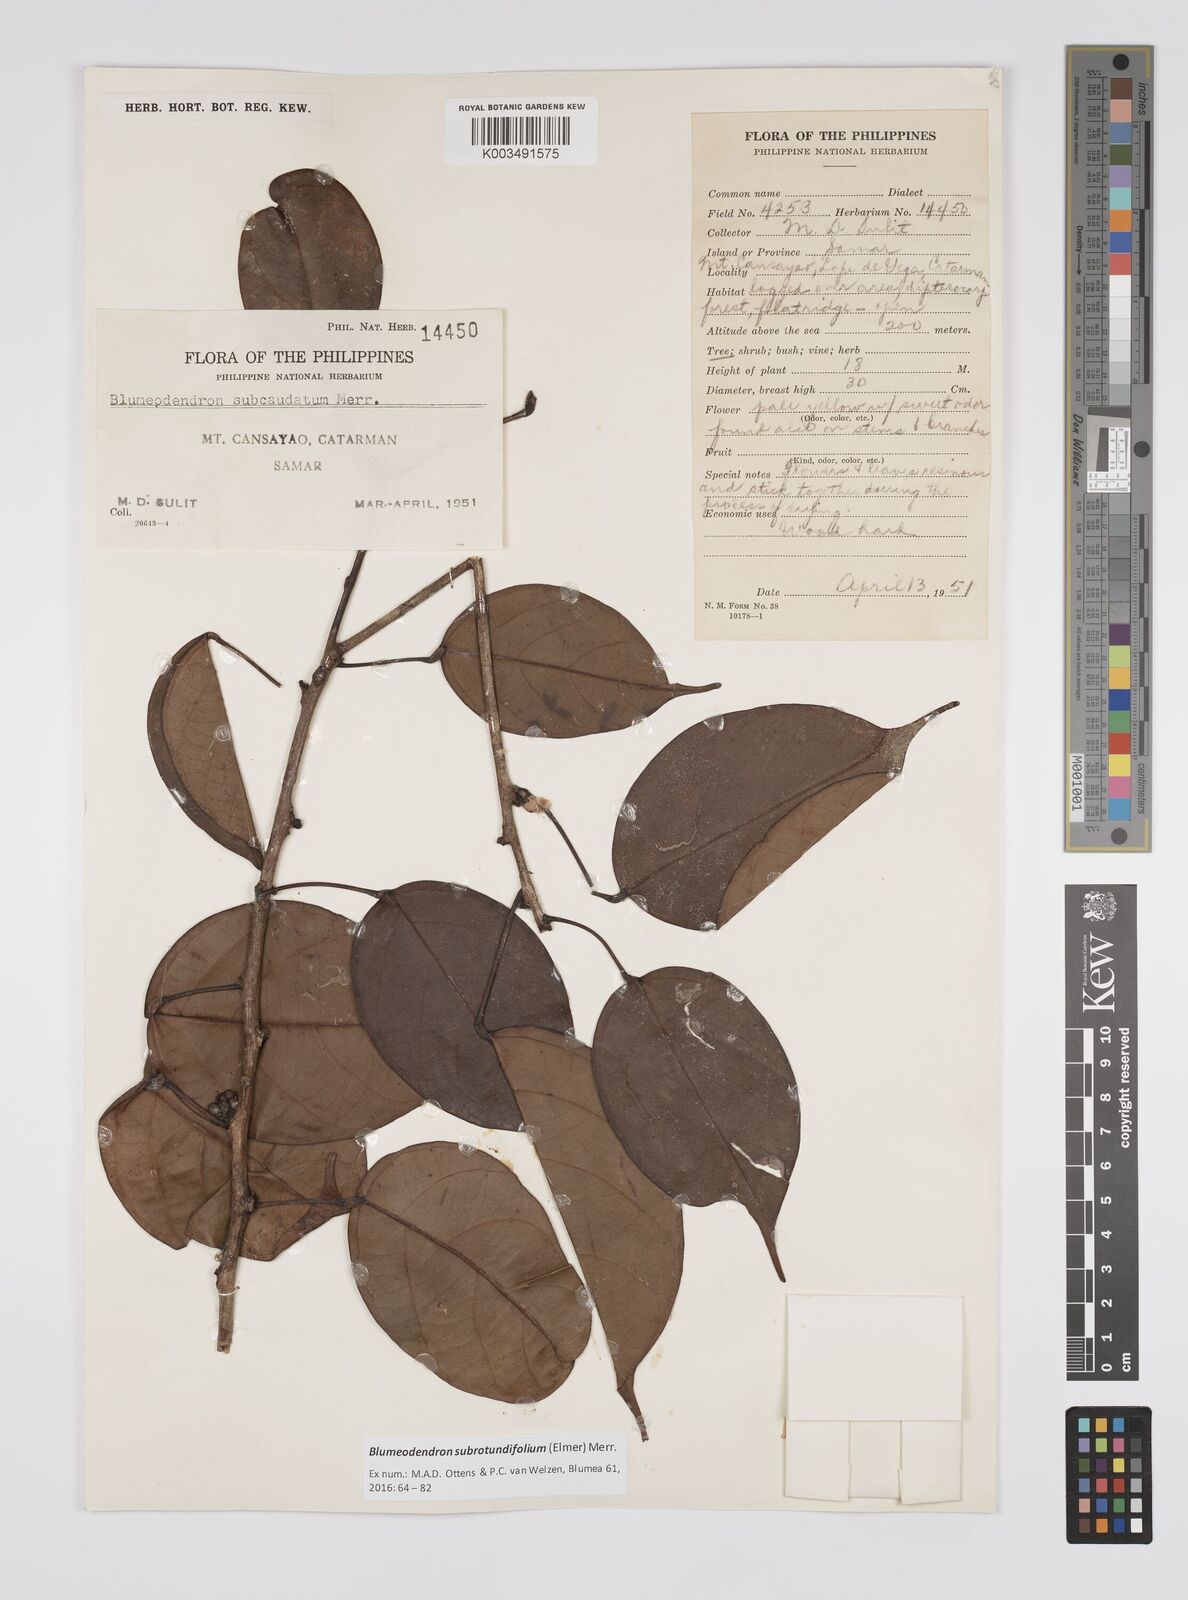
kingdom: Plantae
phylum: Tracheophyta
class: Magnoliopsida
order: Malpighiales
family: Euphorbiaceae
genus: Blumeodendron
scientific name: Blumeodendron subrotundifolium
